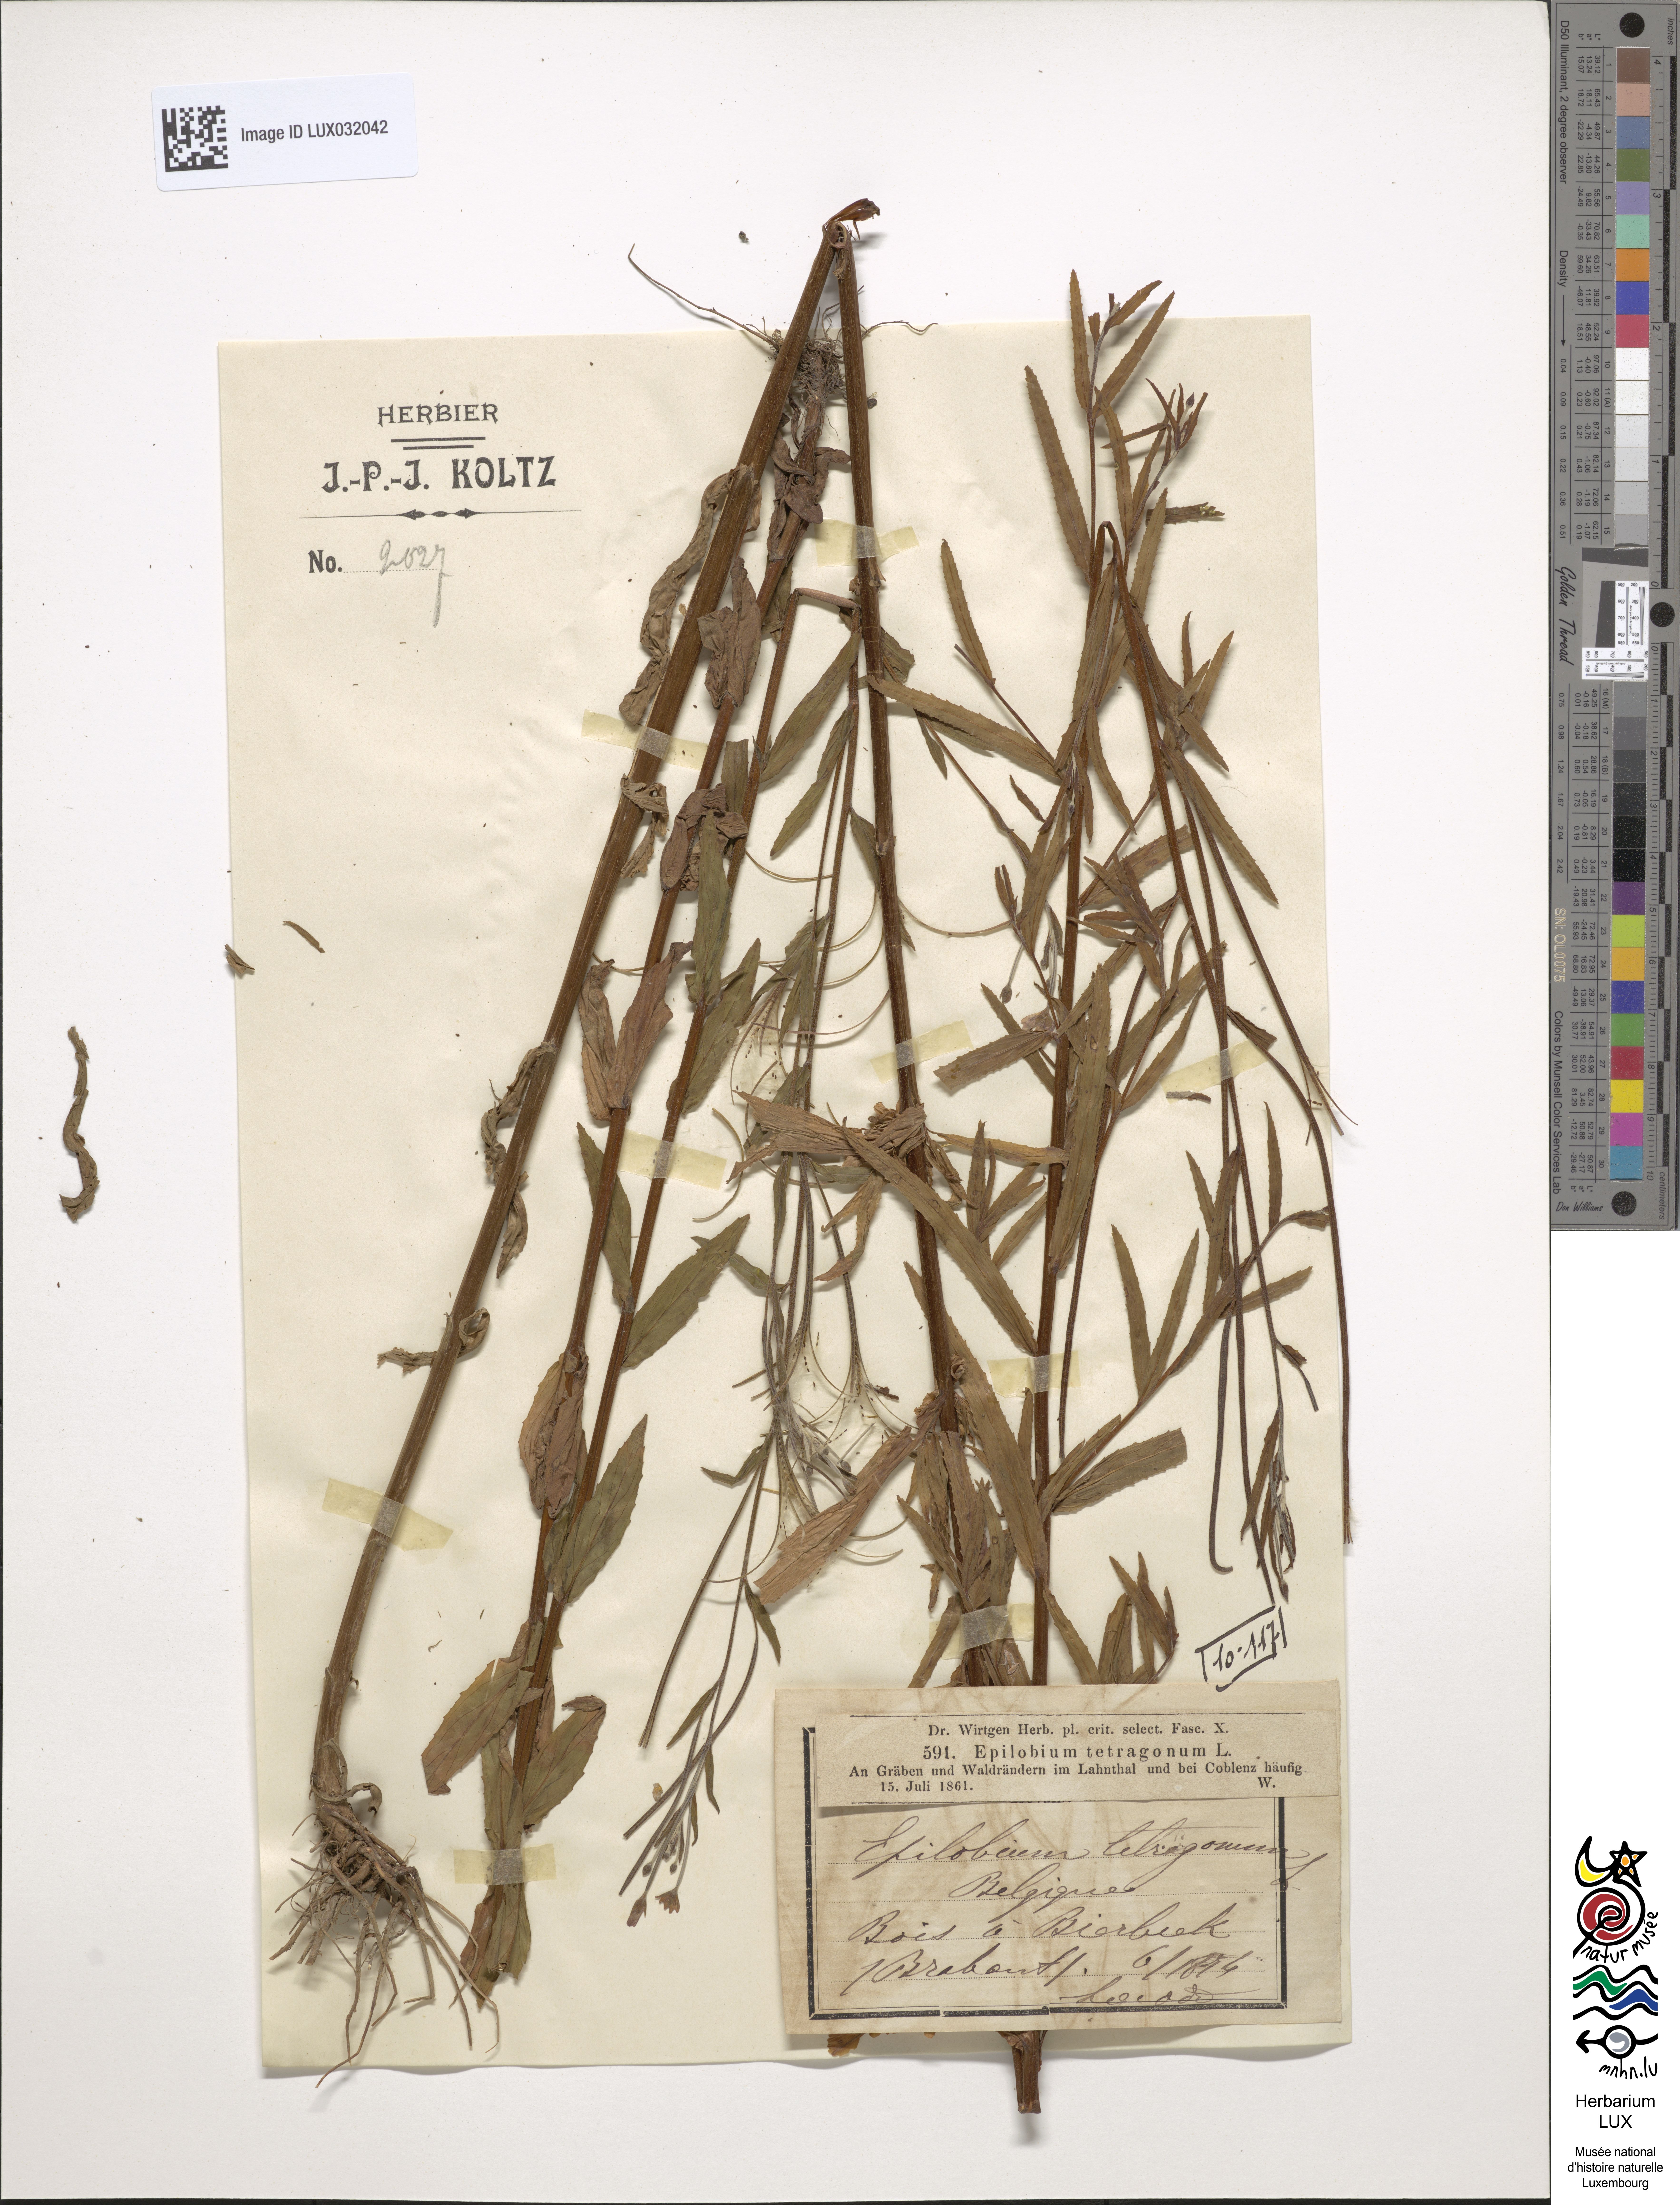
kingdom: Plantae
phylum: Tracheophyta
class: Magnoliopsida
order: Myrtales
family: Onagraceae
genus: Epilobium
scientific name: Epilobium tetragonum
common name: Square-stemmed willowherb
